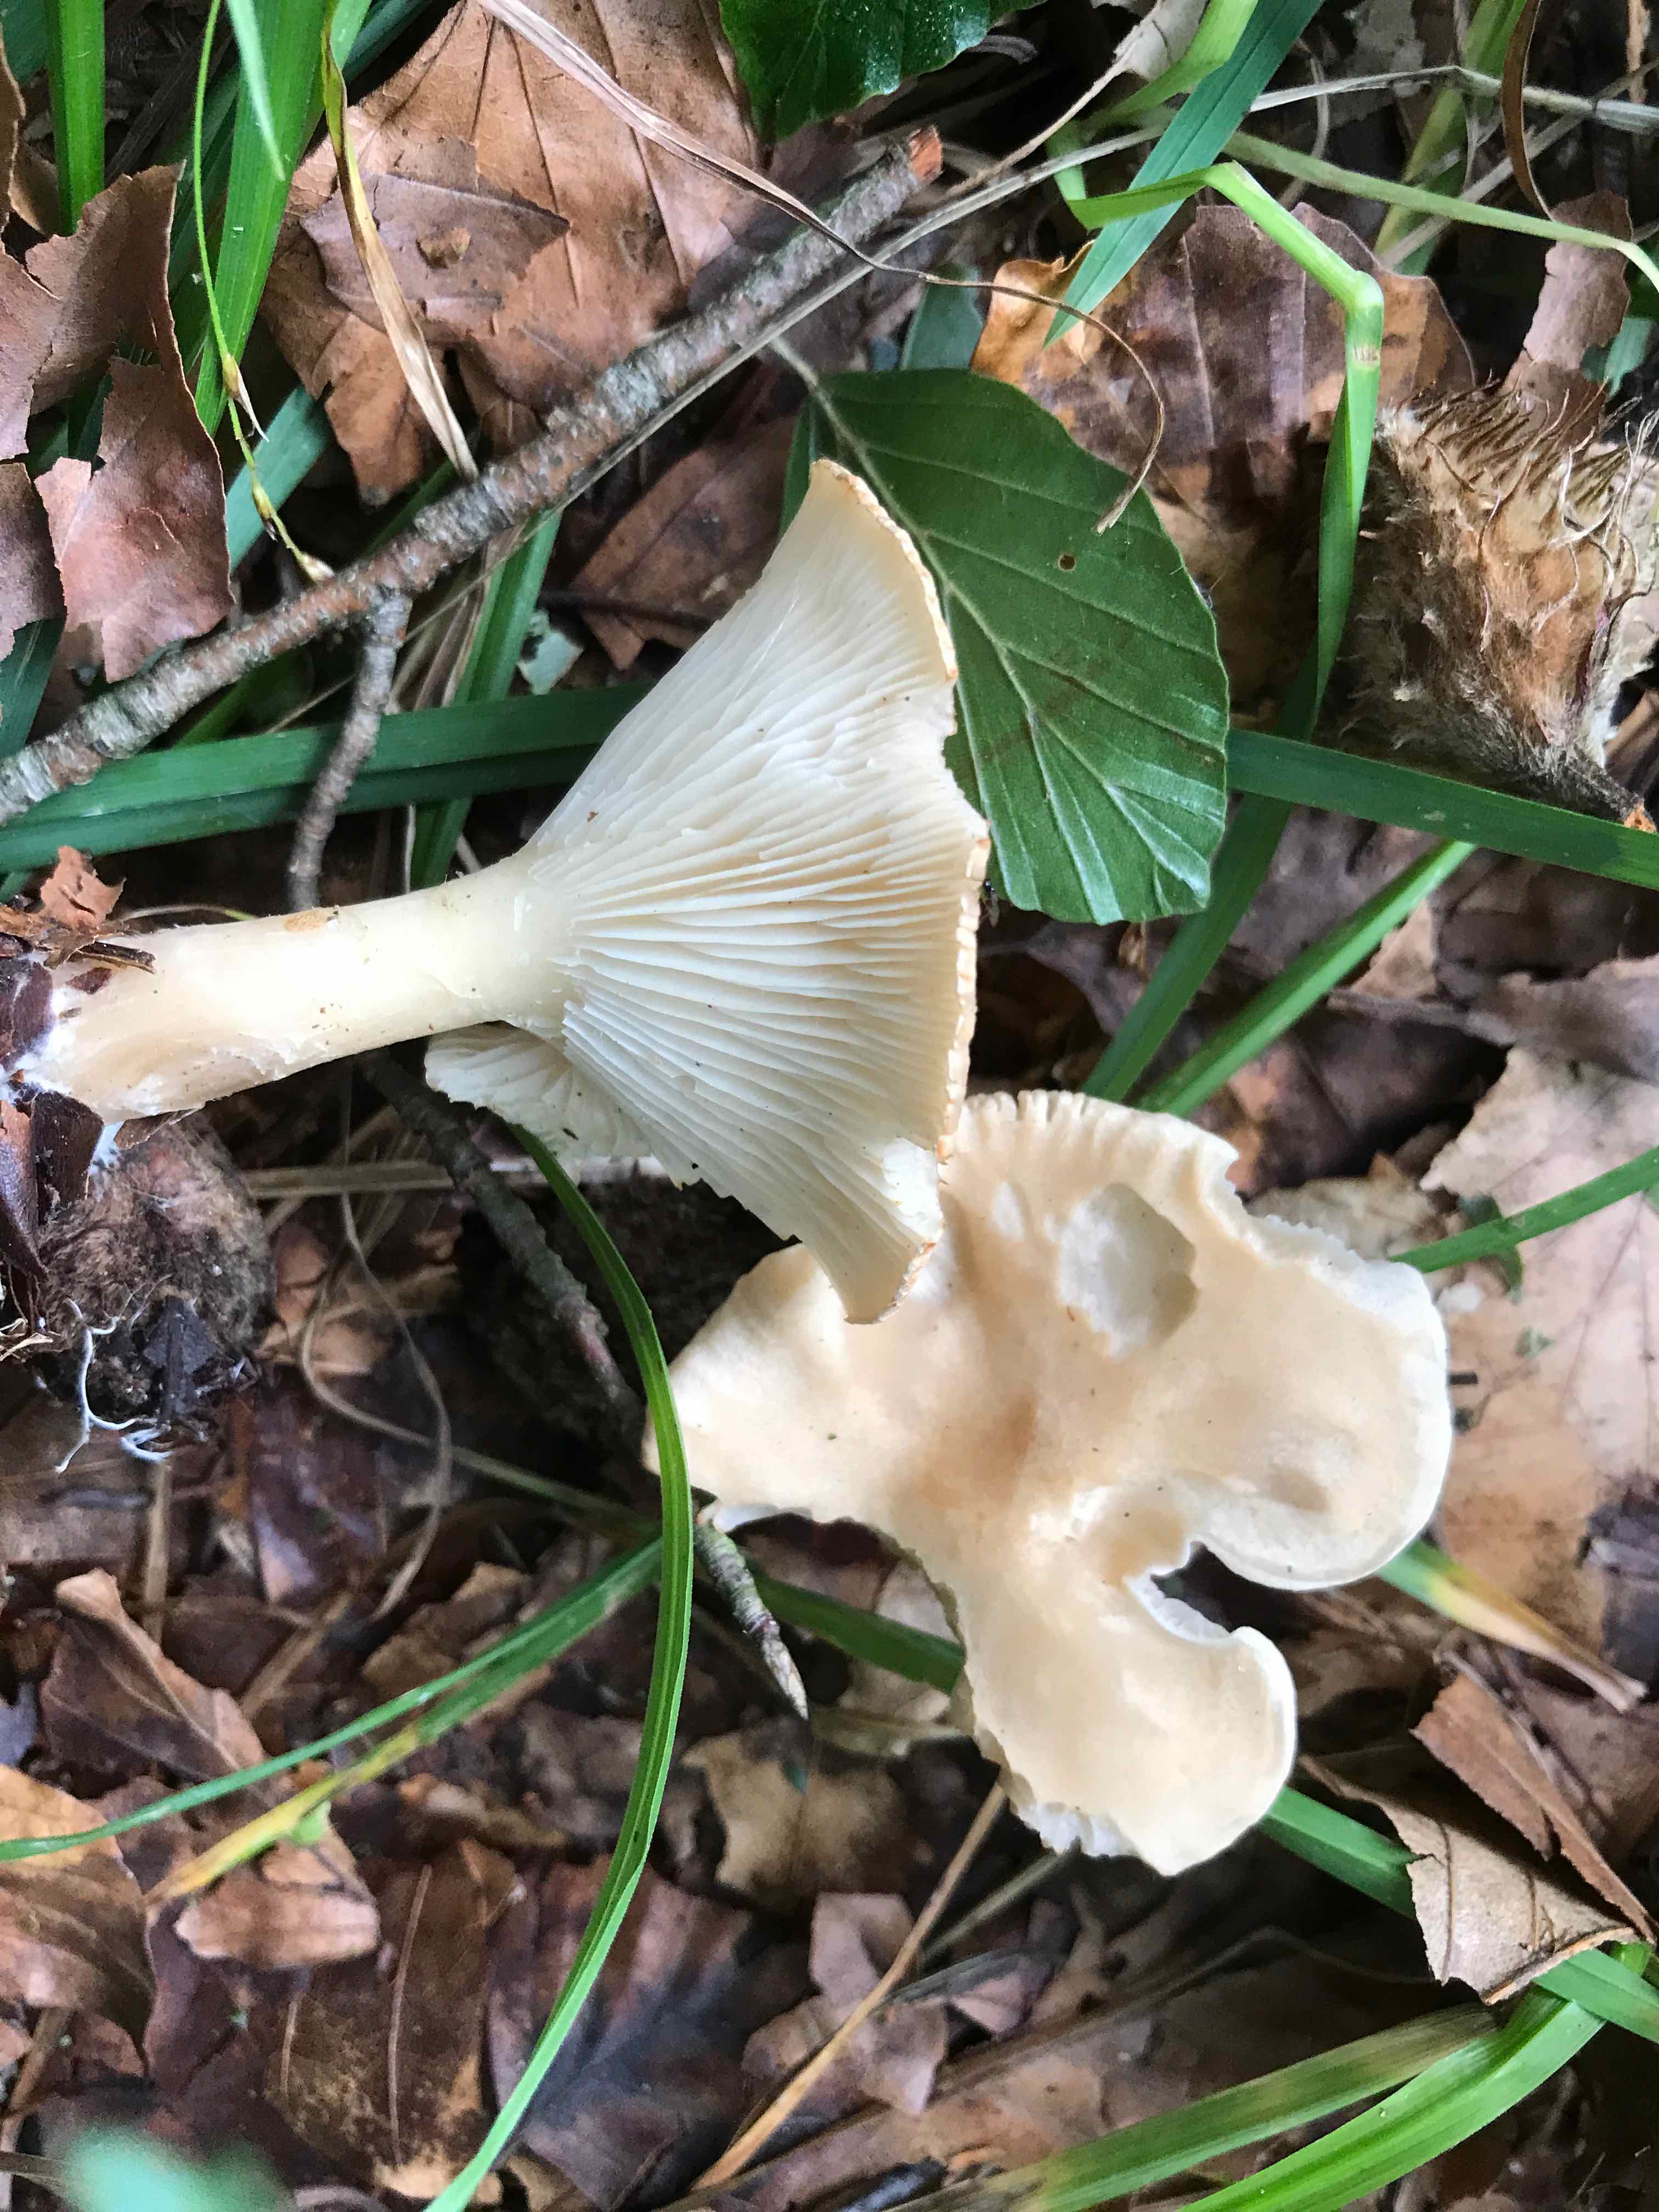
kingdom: Fungi
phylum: Basidiomycota
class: Agaricomycetes
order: Agaricales
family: Tricholomataceae
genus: Infundibulicybe
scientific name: Infundibulicybe gibba
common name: almindelig tragthat
